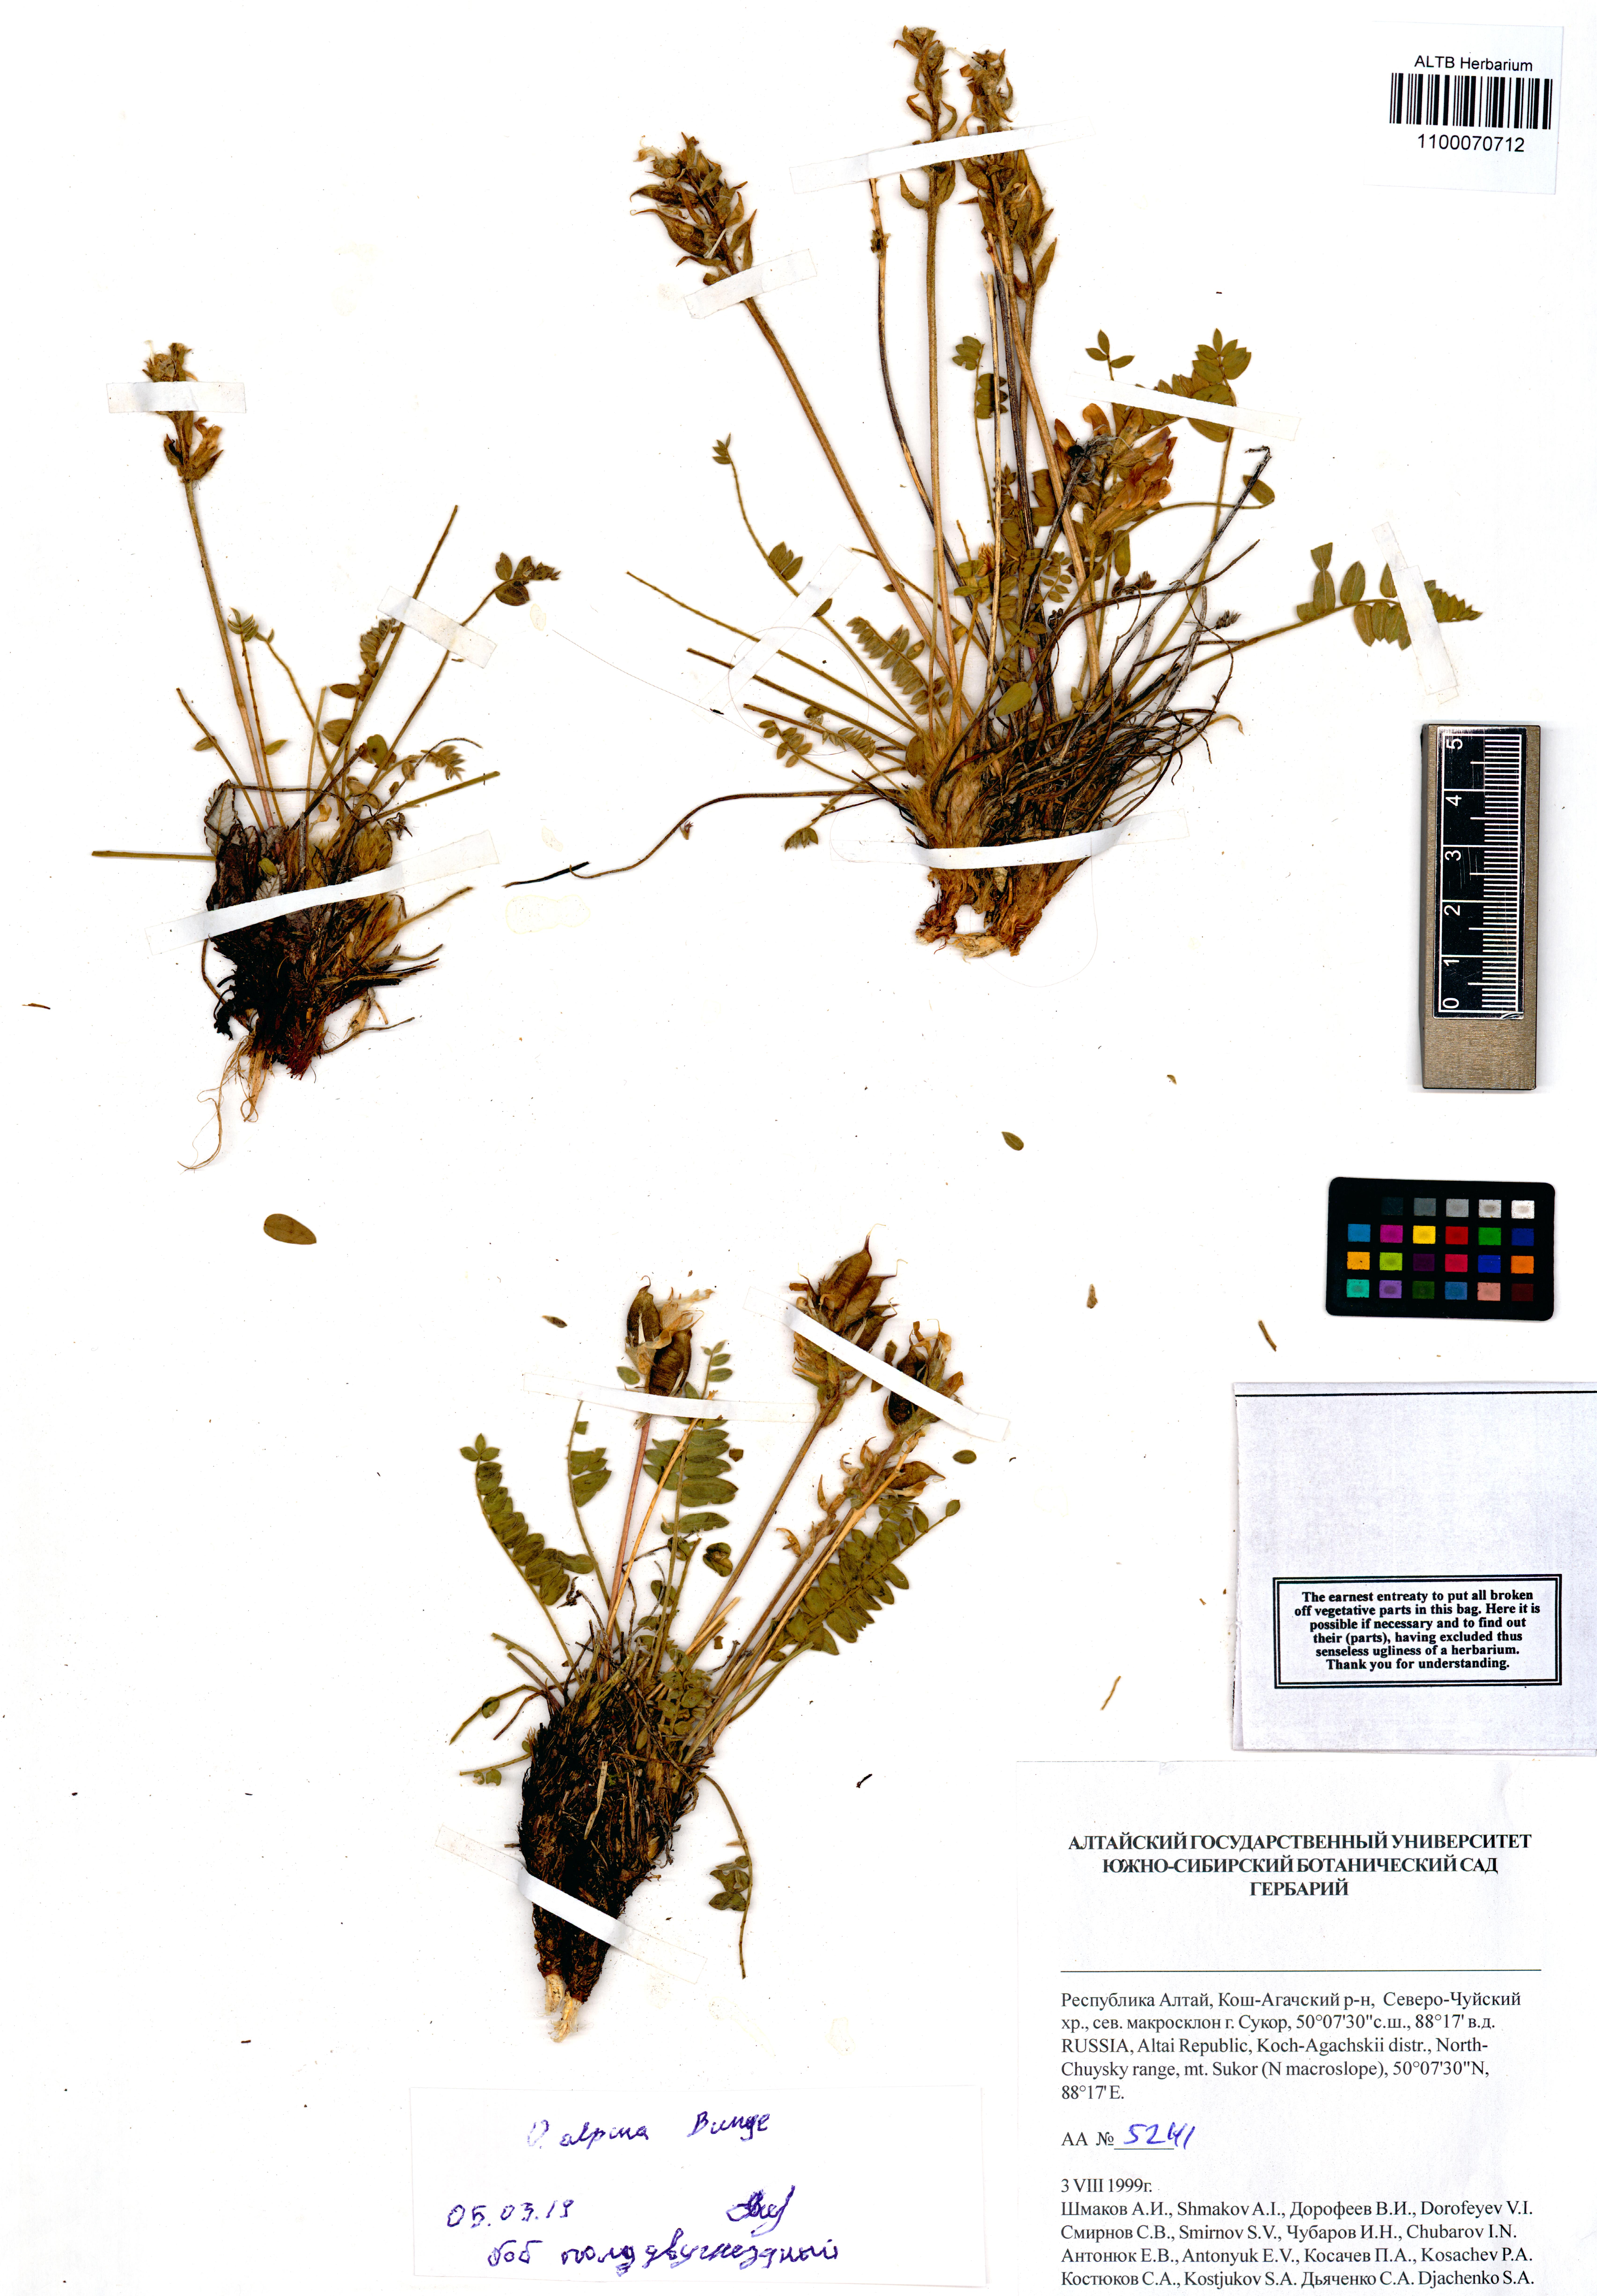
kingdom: Plantae
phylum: Tracheophyta
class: Magnoliopsida
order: Fabales
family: Fabaceae
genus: Oxytropis
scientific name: Oxytropis alpina
